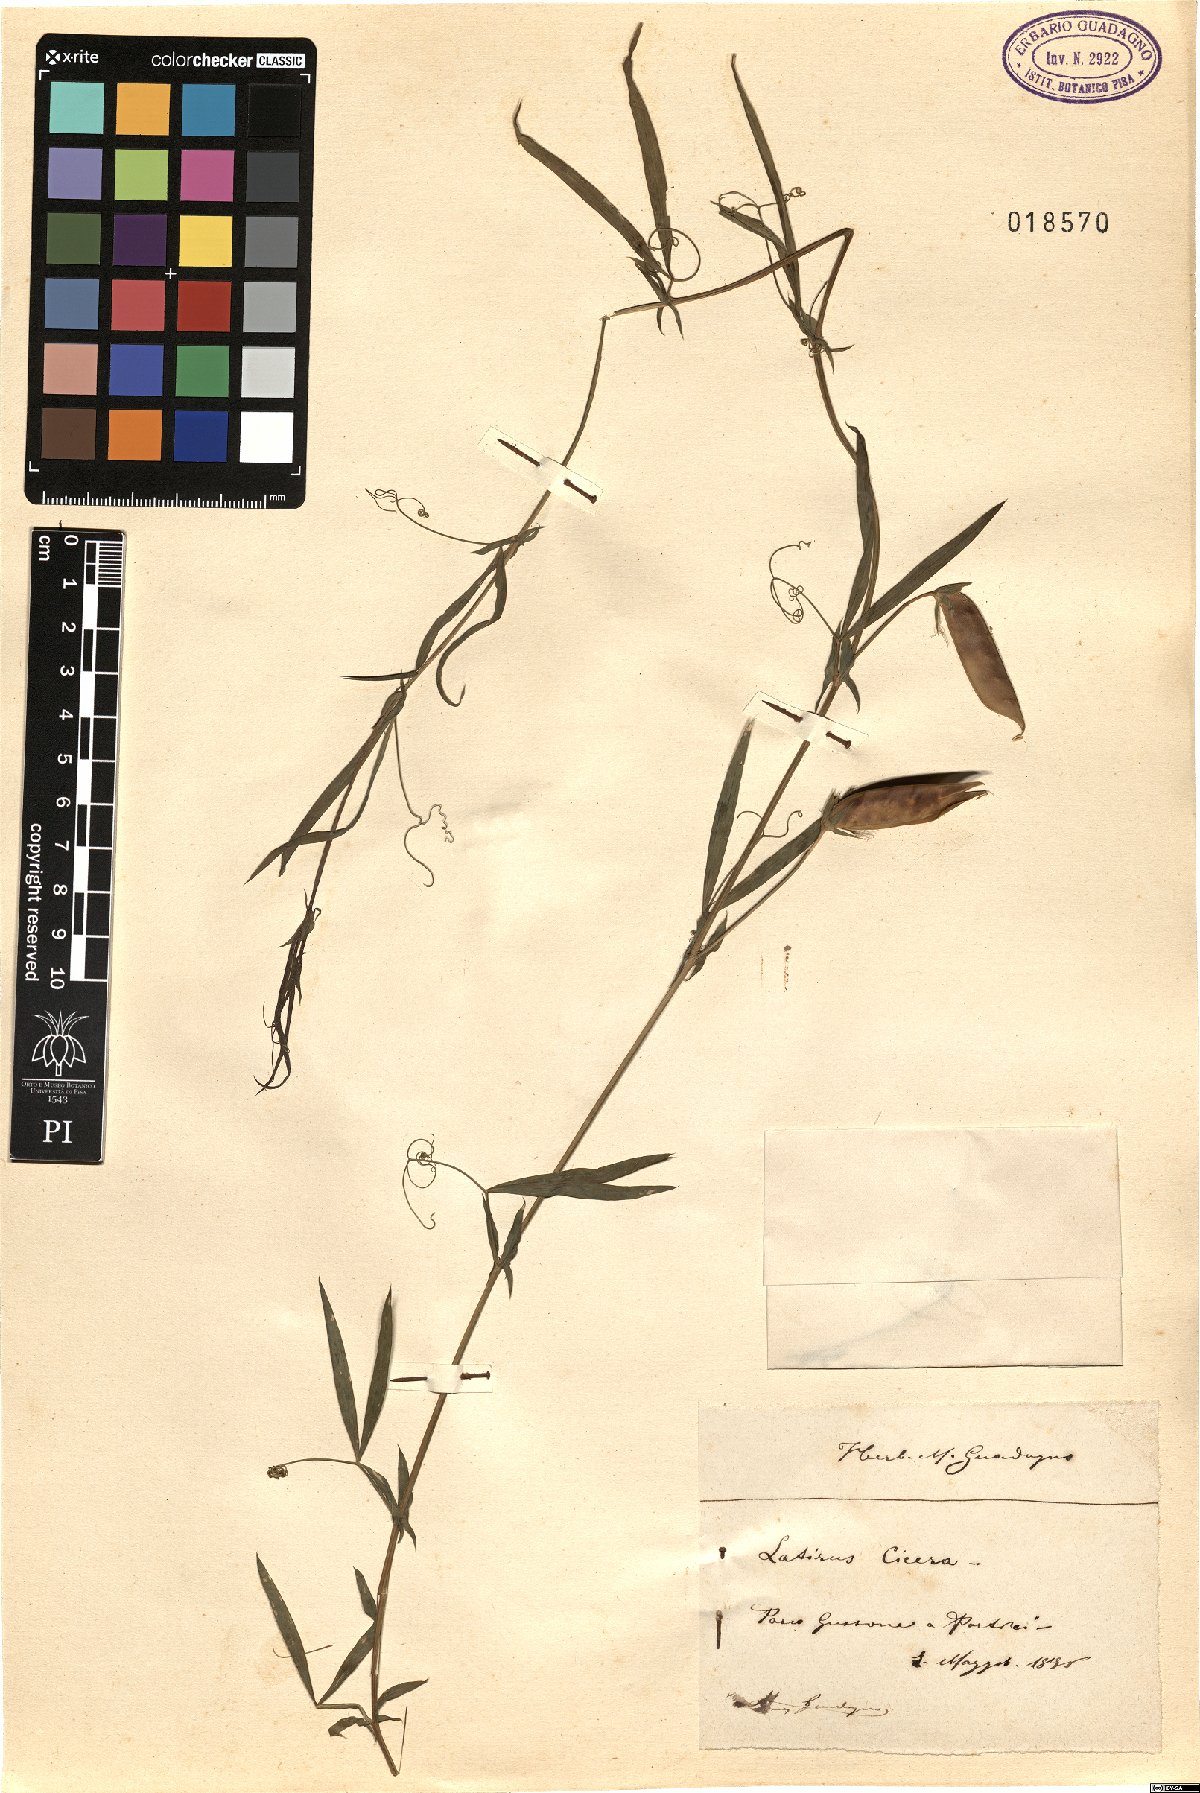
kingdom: Plantae
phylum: Tracheophyta
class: Magnoliopsida
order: Fabales
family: Fabaceae
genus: Lathyrus
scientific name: Lathyrus cicera
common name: Red vetchling
